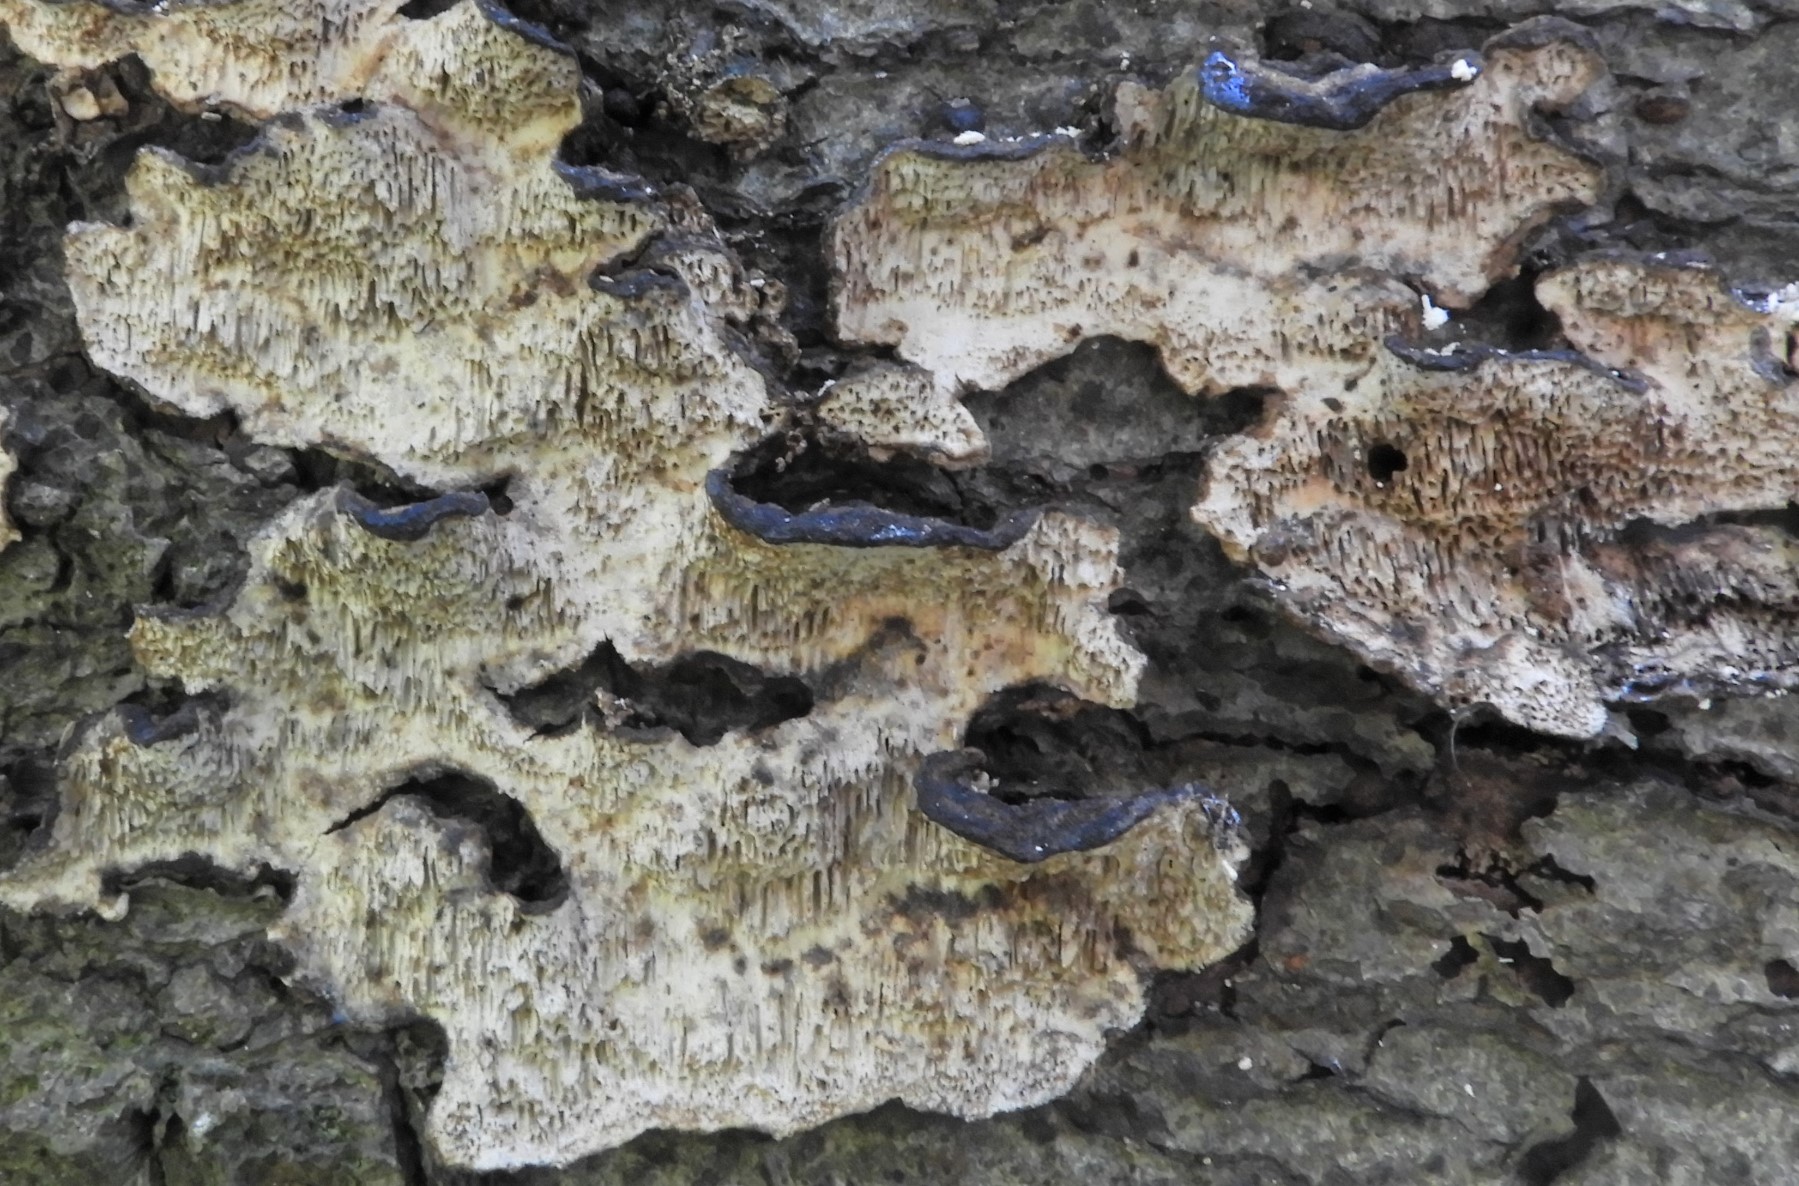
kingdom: Fungi
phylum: Basidiomycota
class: Agaricomycetes
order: Polyporales
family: Polyporaceae
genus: Podofomes
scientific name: Podofomes mollis
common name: blød begporesvamp
